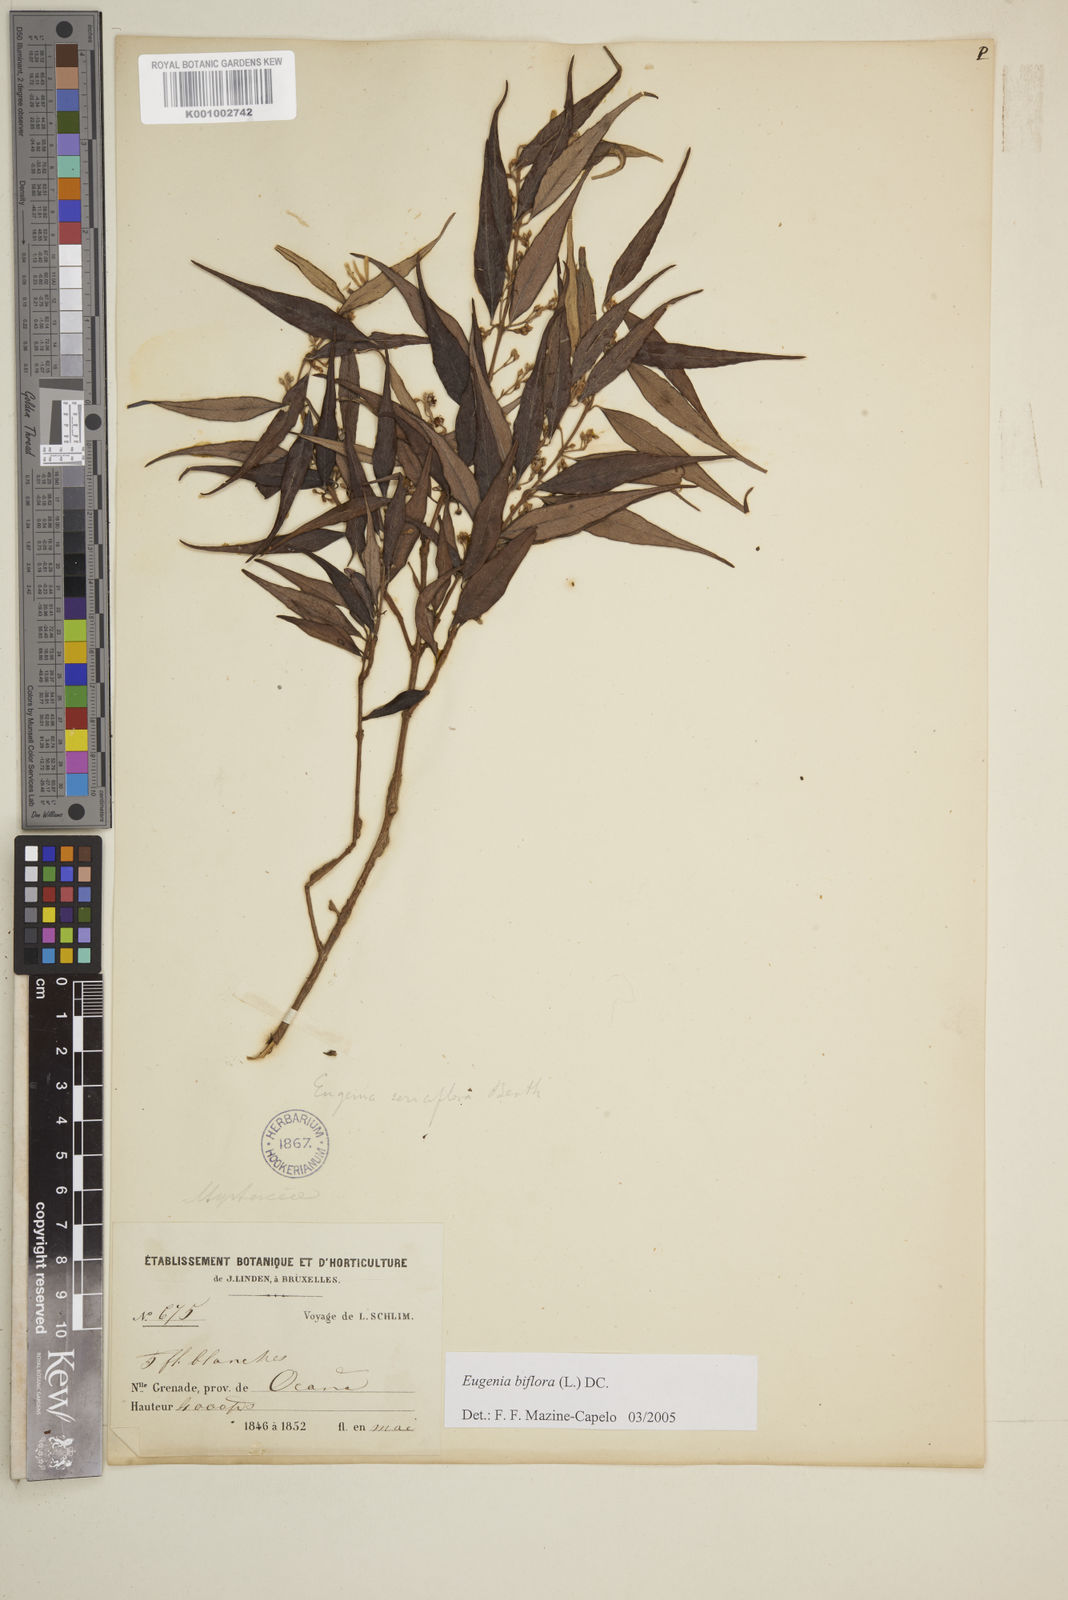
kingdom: Plantae
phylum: Tracheophyta
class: Magnoliopsida
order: Myrtales
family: Myrtaceae
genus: Eugenia
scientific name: Eugenia biflora
